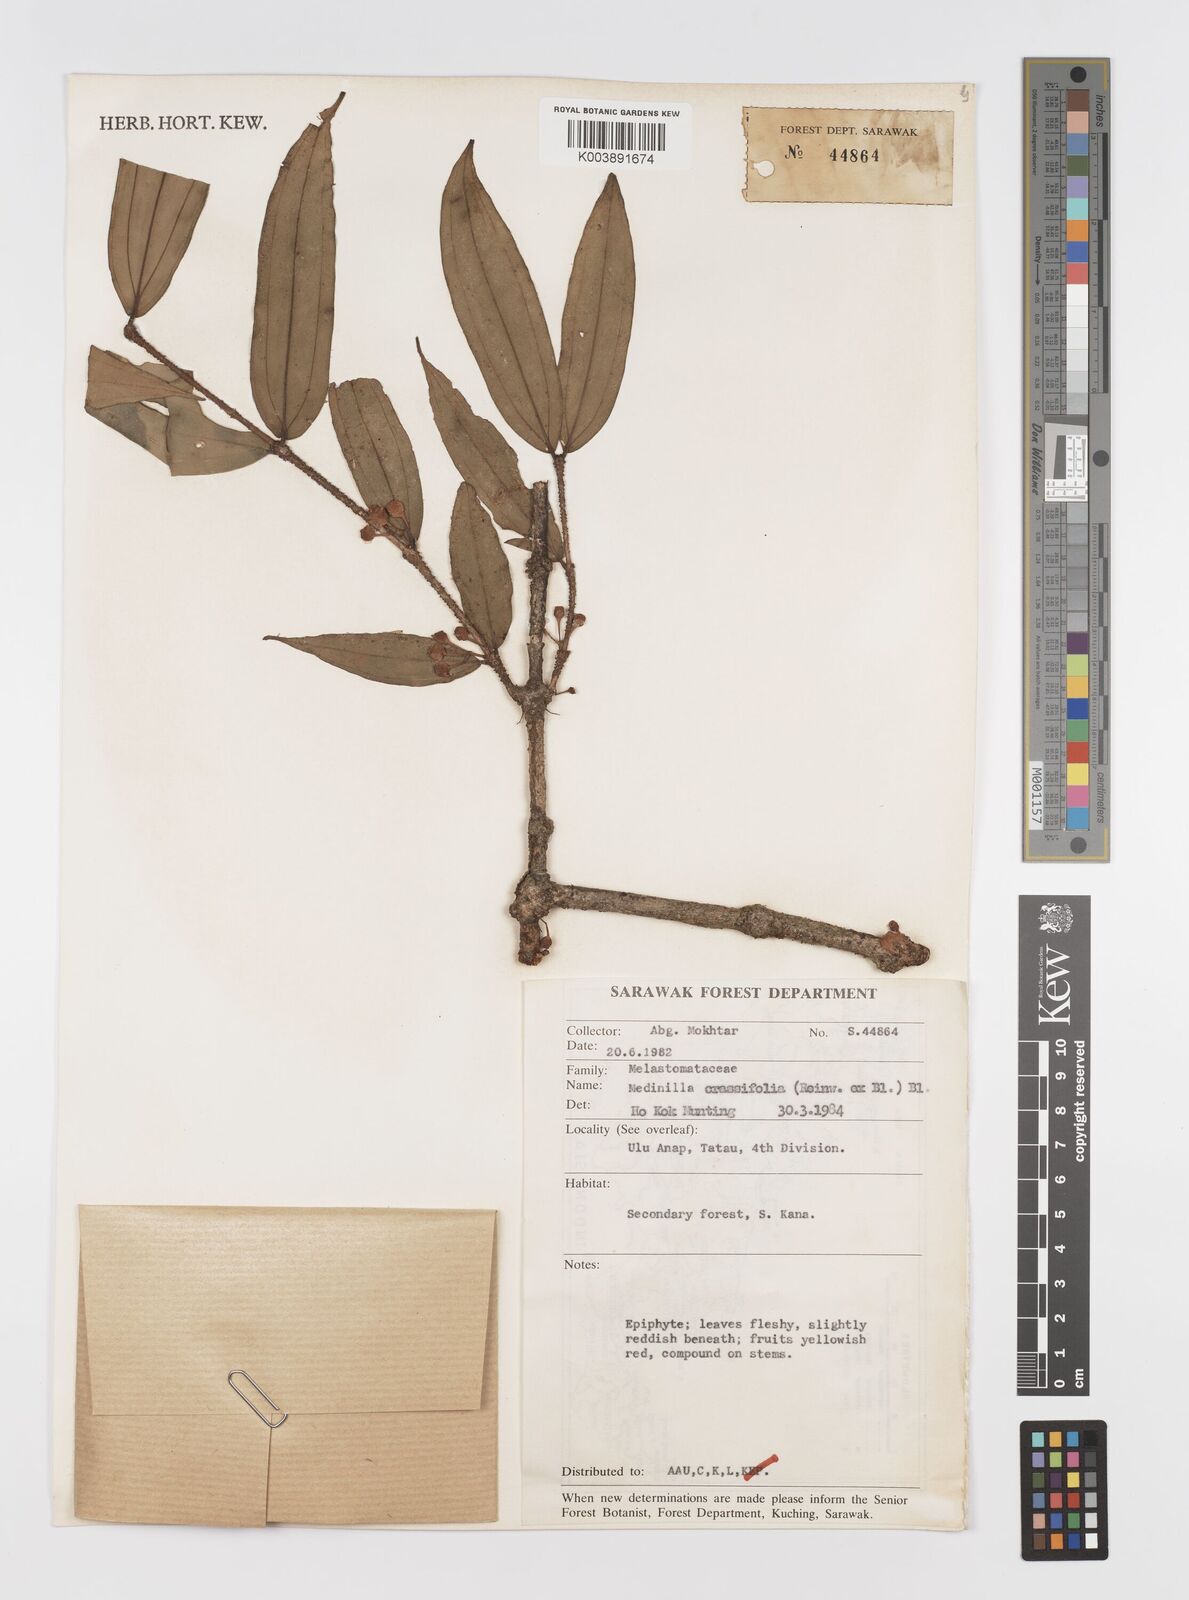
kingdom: Plantae
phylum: Tracheophyta
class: Magnoliopsida
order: Myrtales
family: Melastomataceae
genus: Medinilla
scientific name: Medinilla crassifolia
